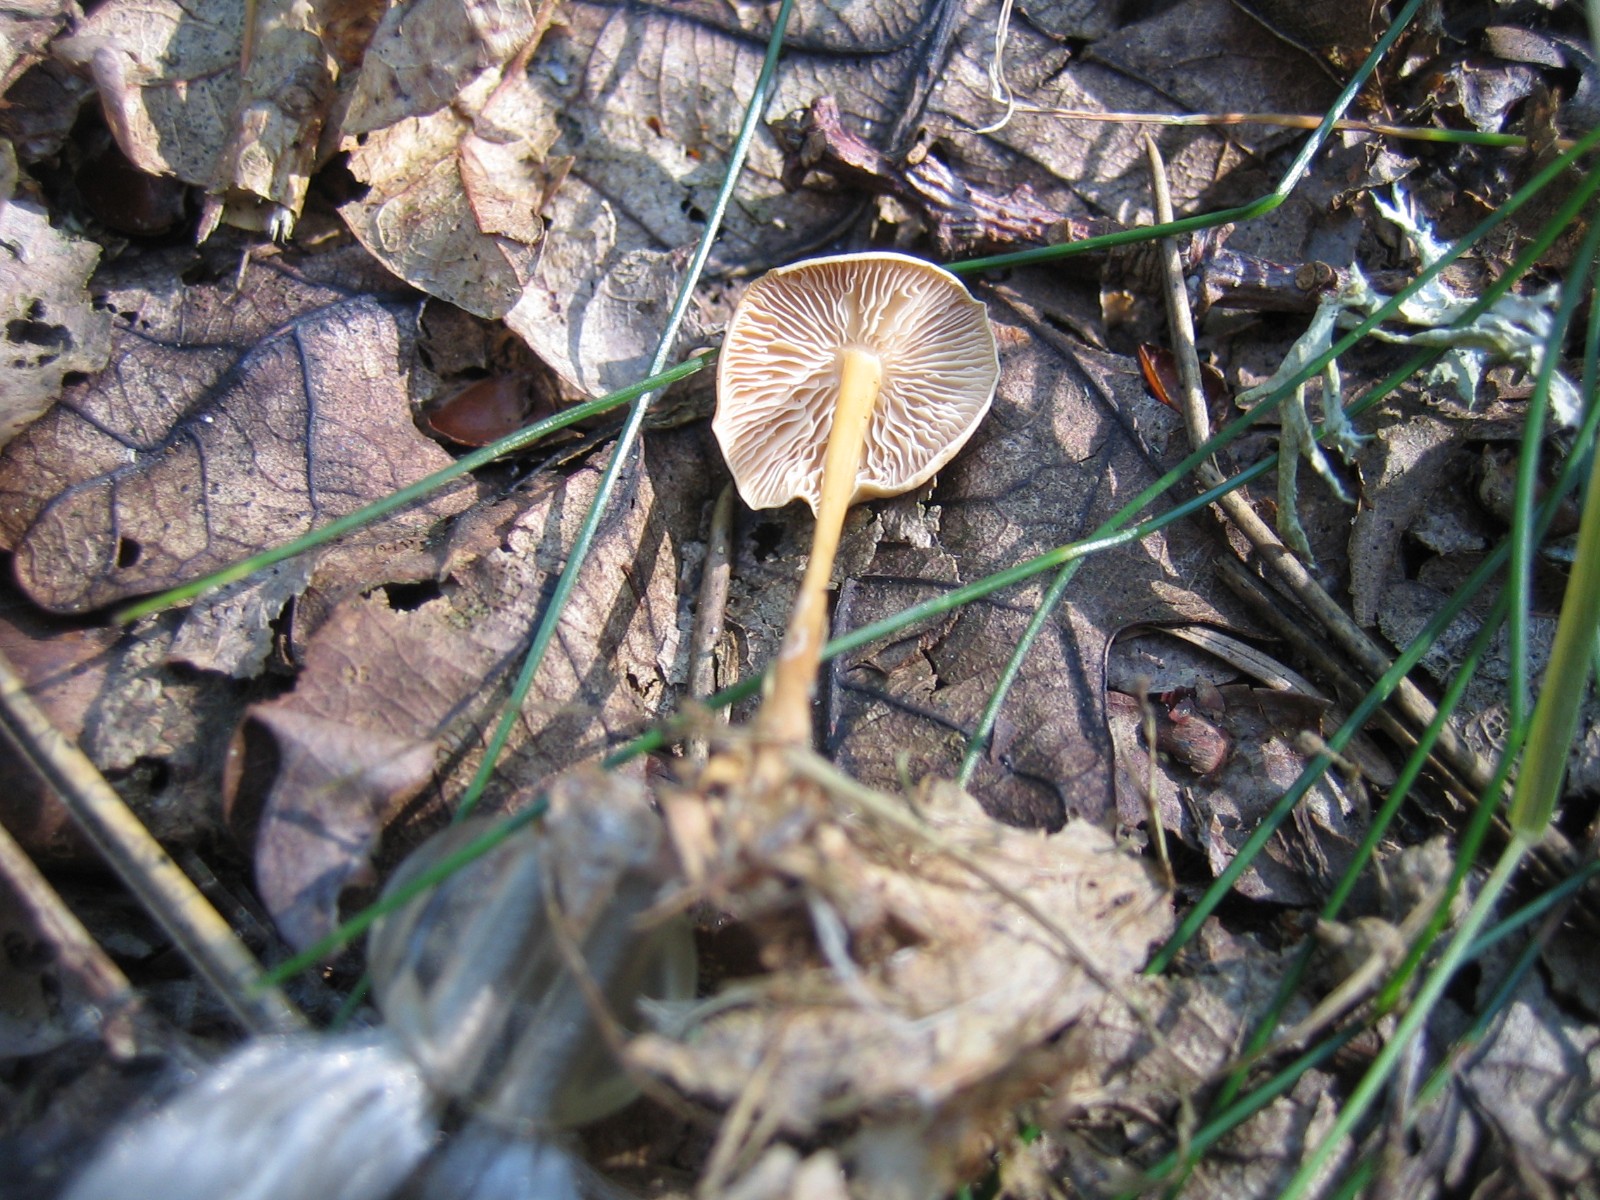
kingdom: Fungi
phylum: Basidiomycota
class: Agaricomycetes
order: Agaricales
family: Omphalotaceae
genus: Gymnopus
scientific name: Gymnopus dryophilus
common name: løv-fladhat
